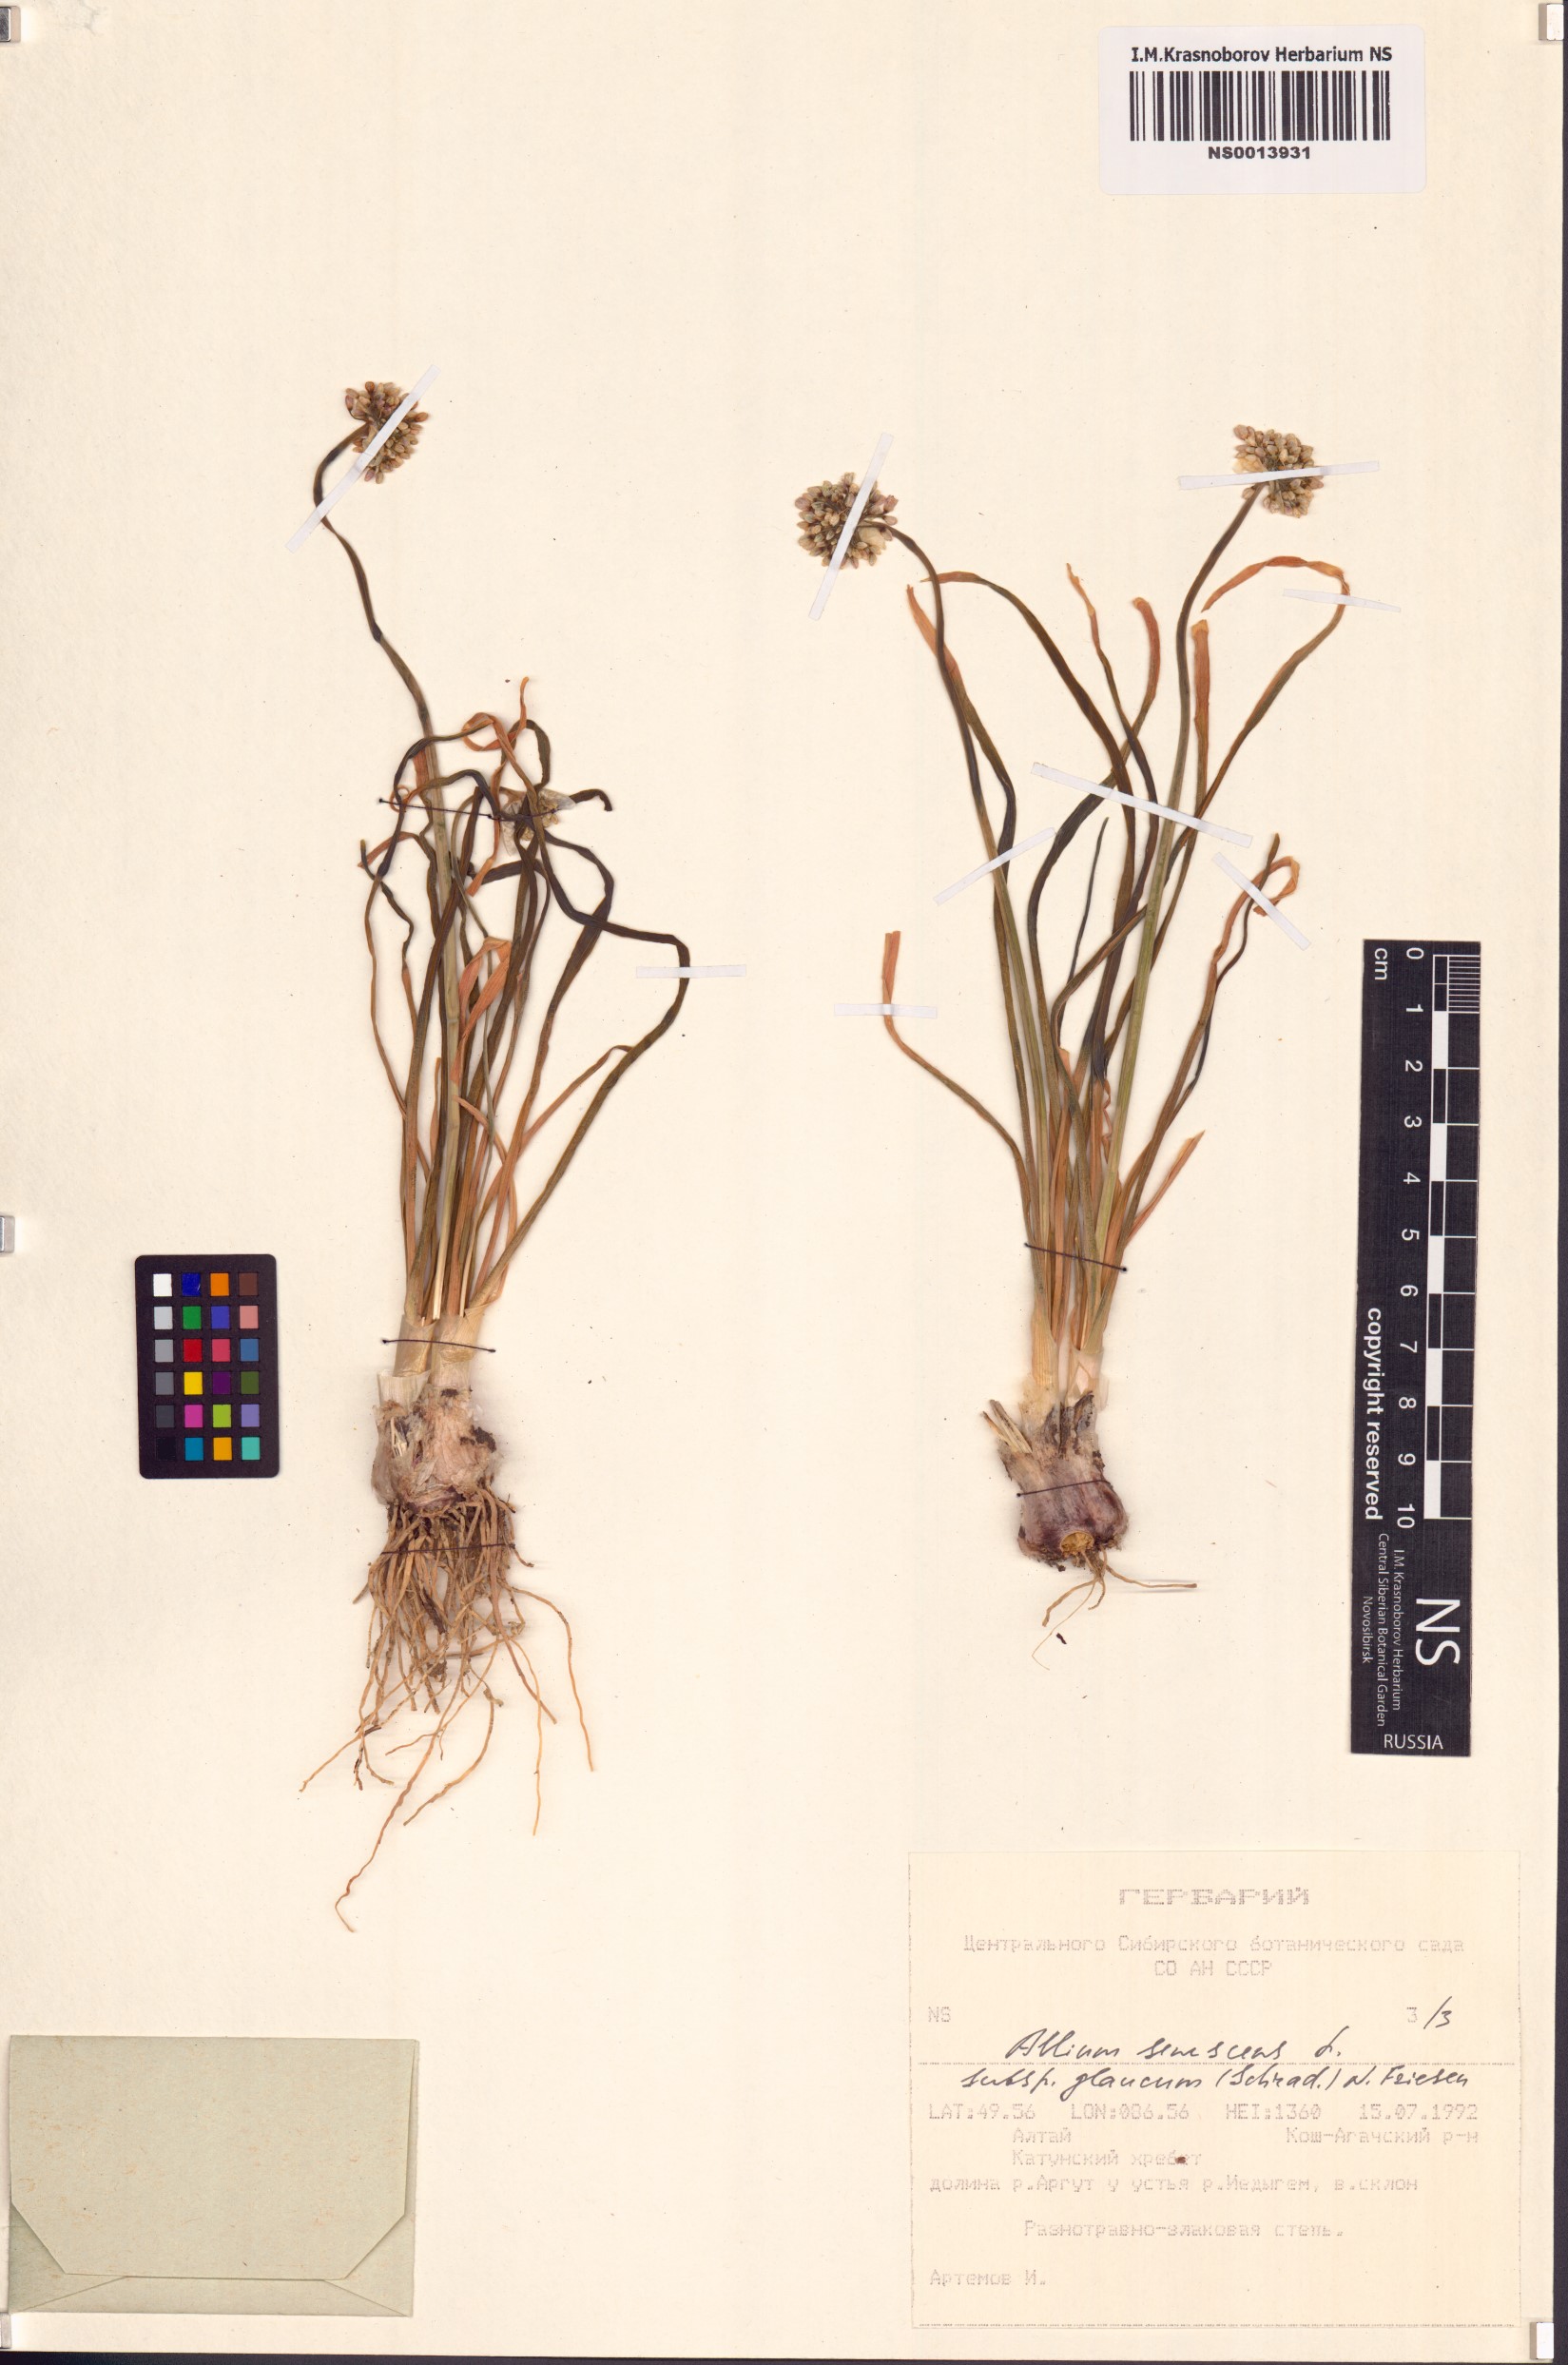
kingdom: Plantae
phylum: Tracheophyta
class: Liliopsida
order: Asparagales
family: Amaryllidaceae
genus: Allium
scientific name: Allium senescens
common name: German garlic
